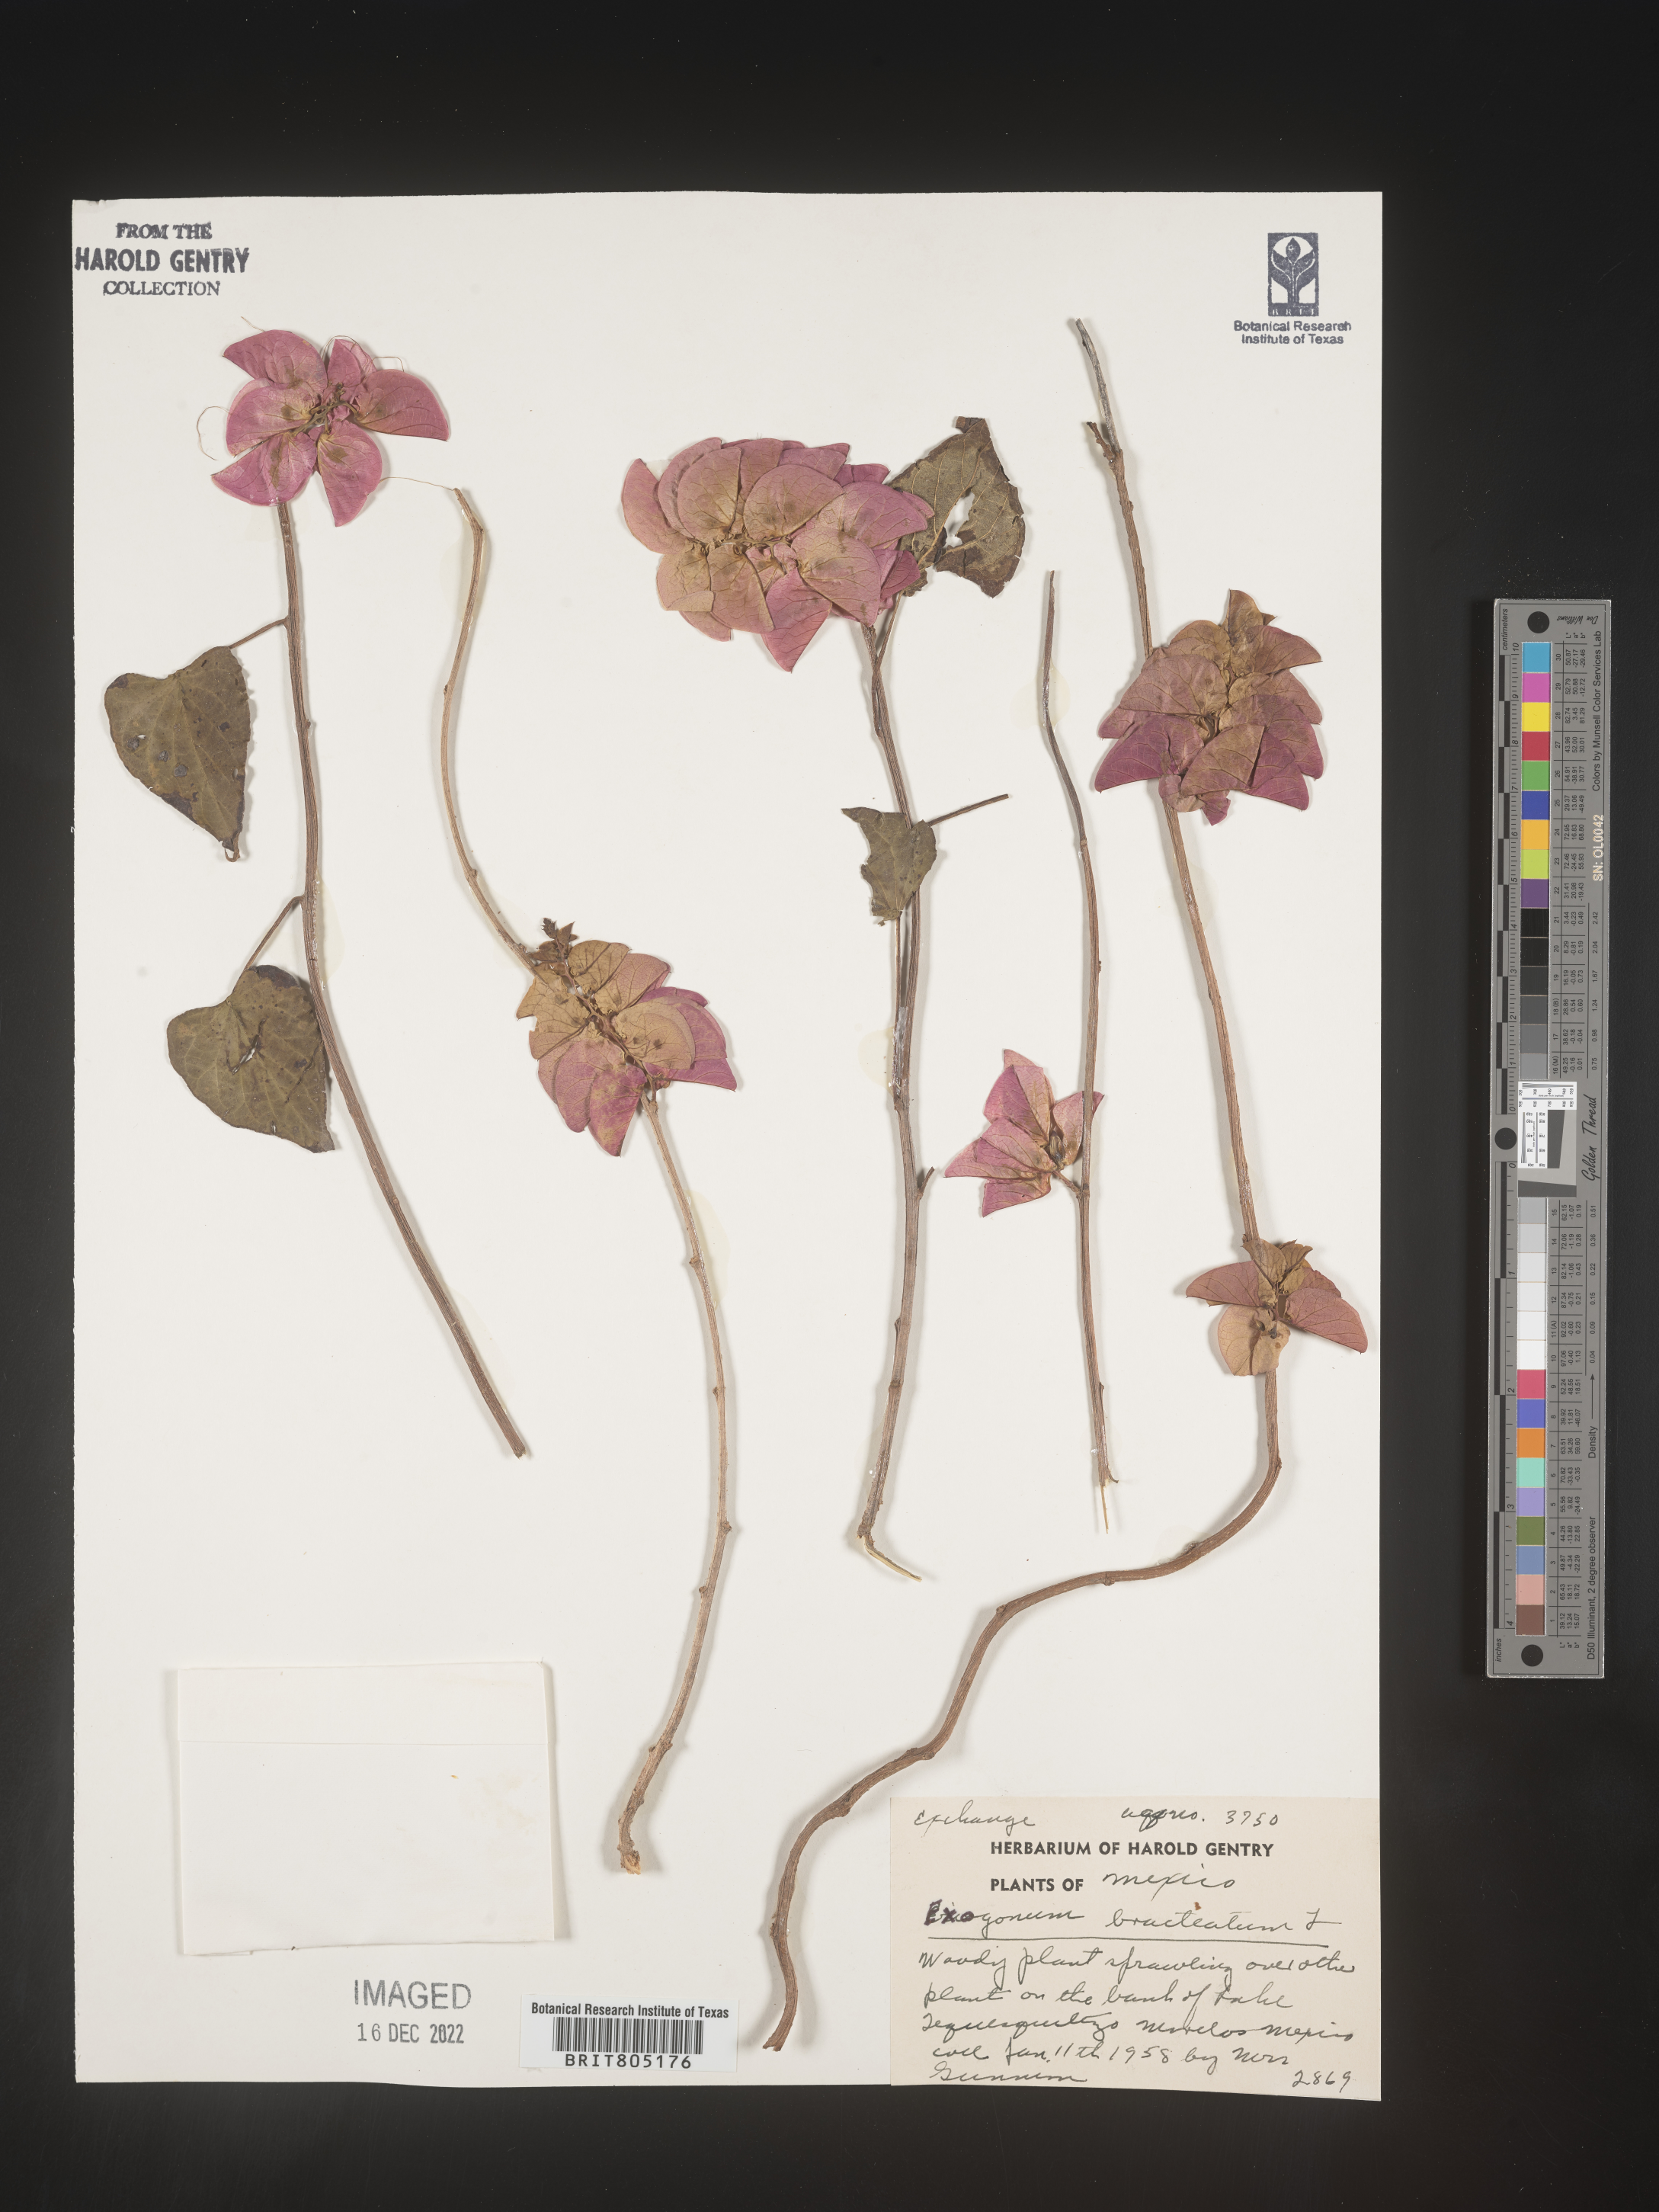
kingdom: Plantae
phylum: Tracheophyta
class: Magnoliopsida
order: Solanales
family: Convolvulaceae
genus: Ipomoea
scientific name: Ipomoea
